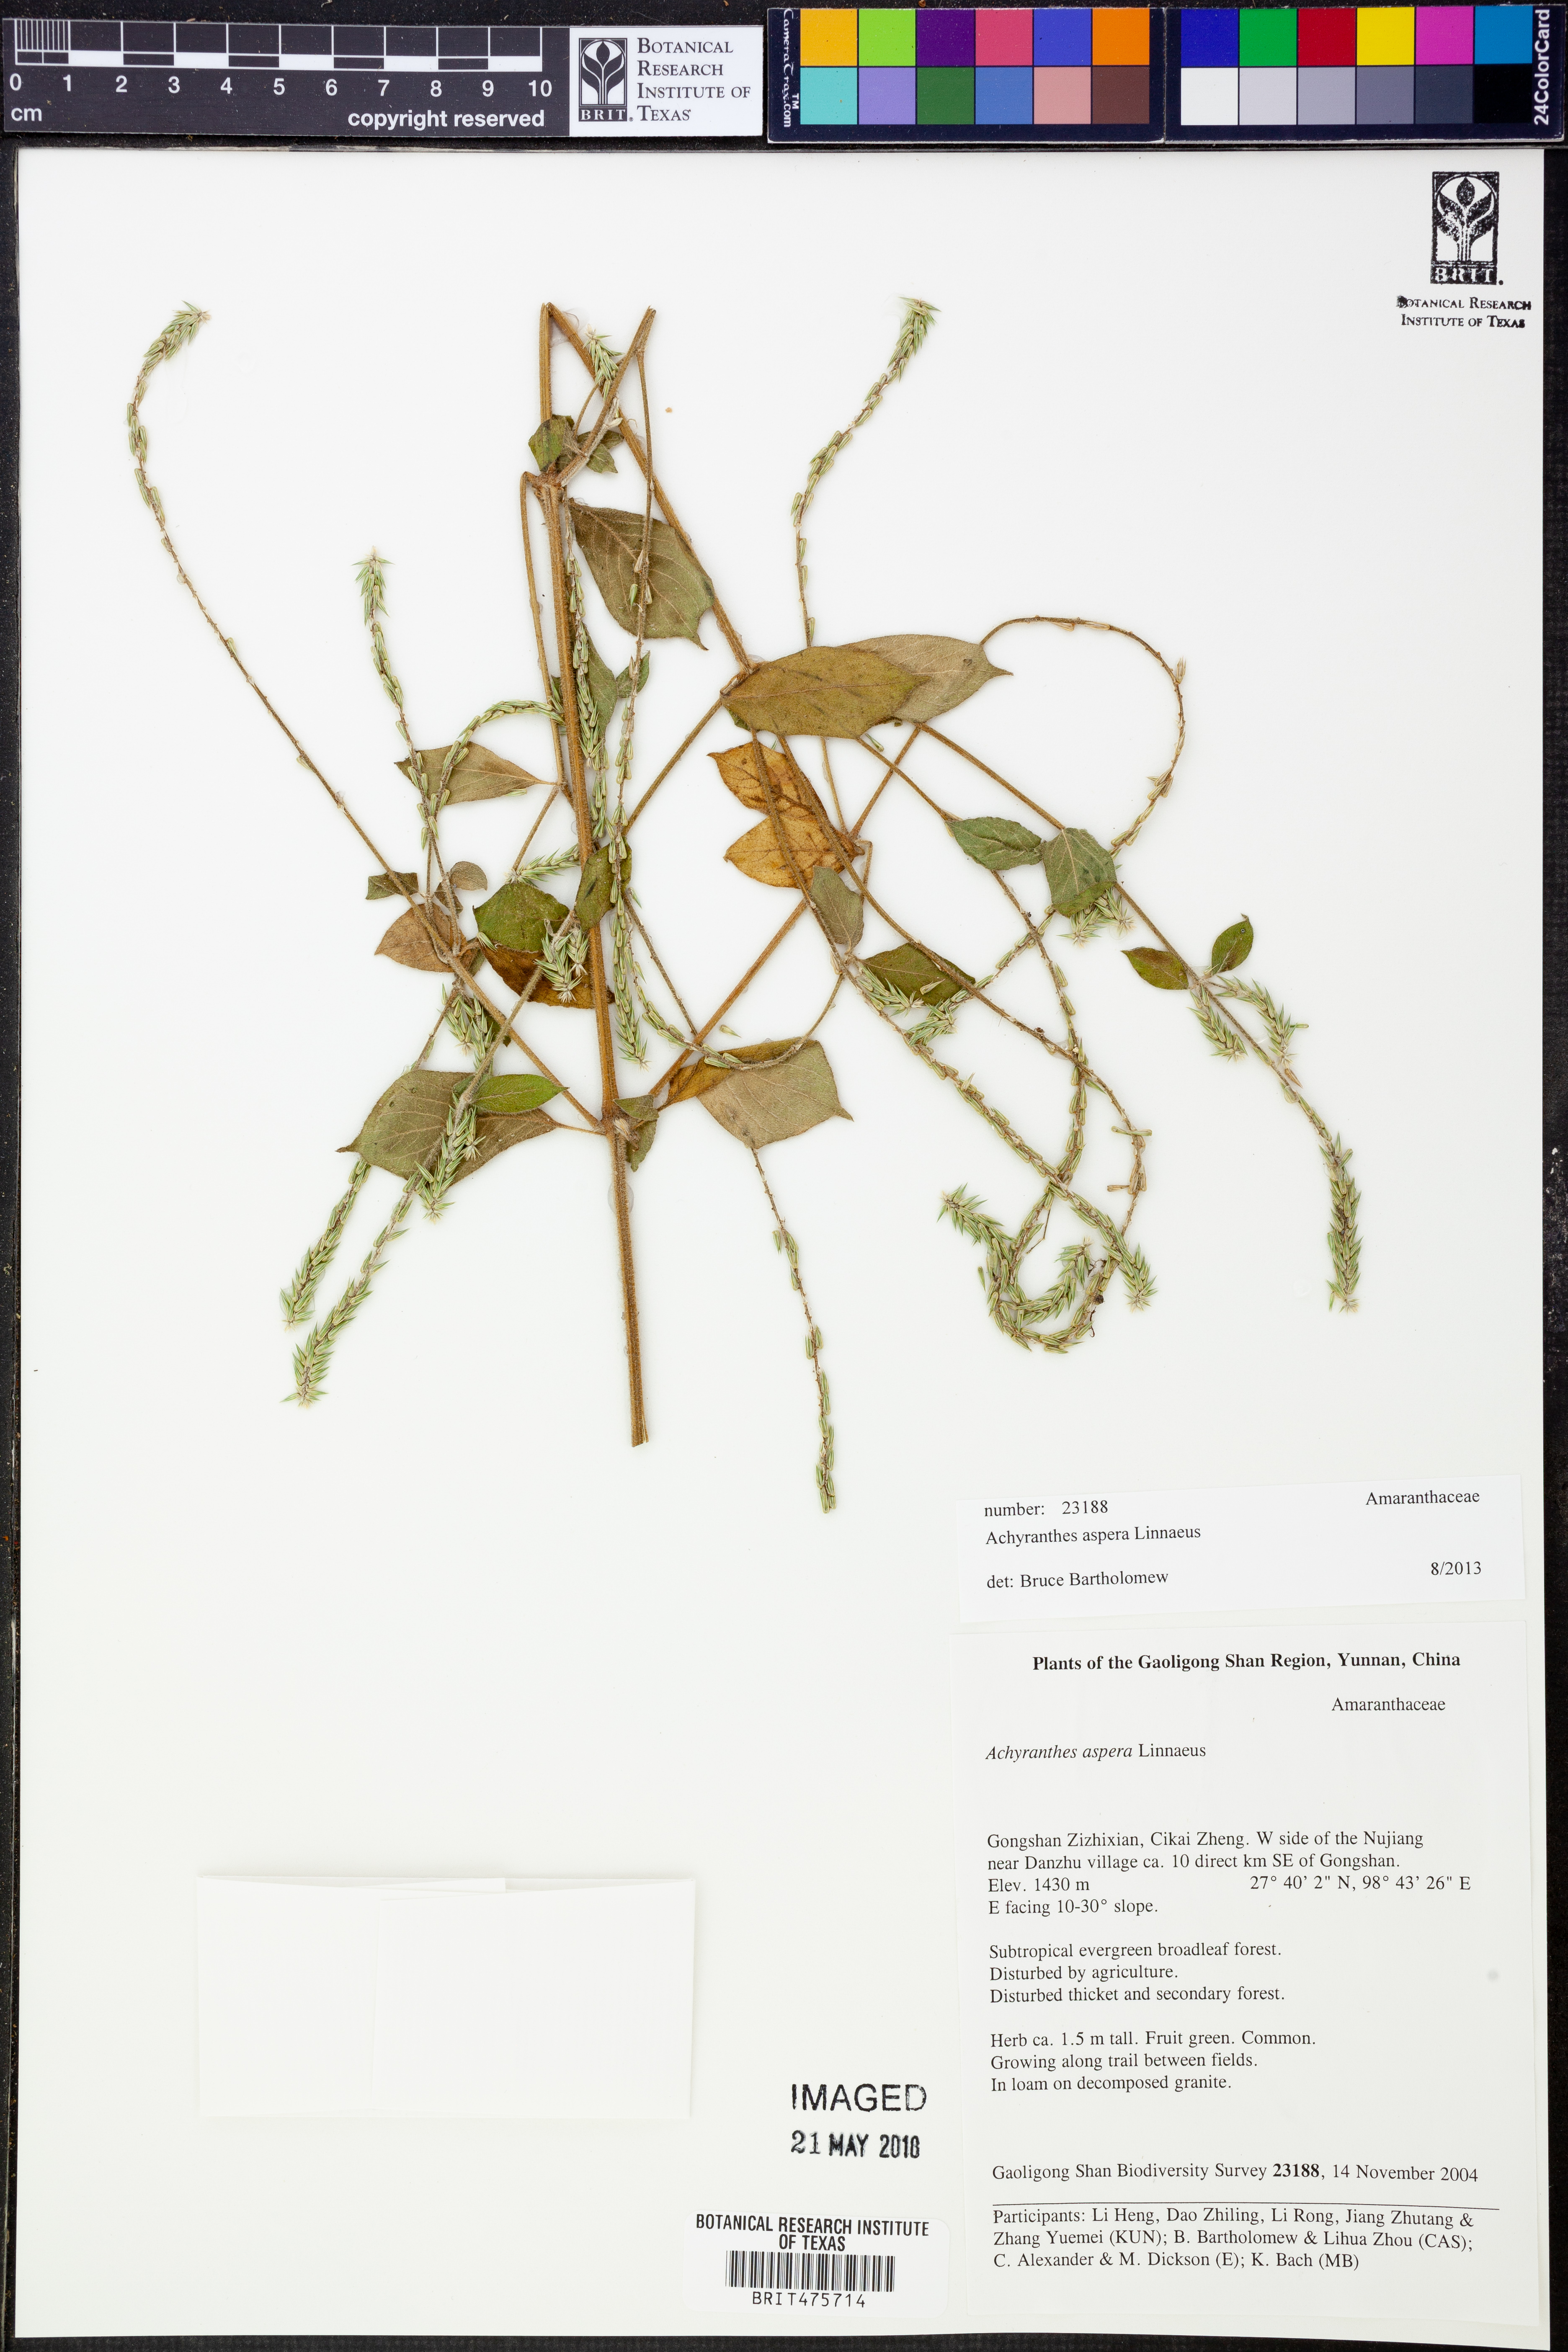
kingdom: Plantae
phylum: Tracheophyta
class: Magnoliopsida
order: Caryophyllales
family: Amaranthaceae
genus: Achyranthes
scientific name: Achyranthes aspera
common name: Devil's horsewhip
